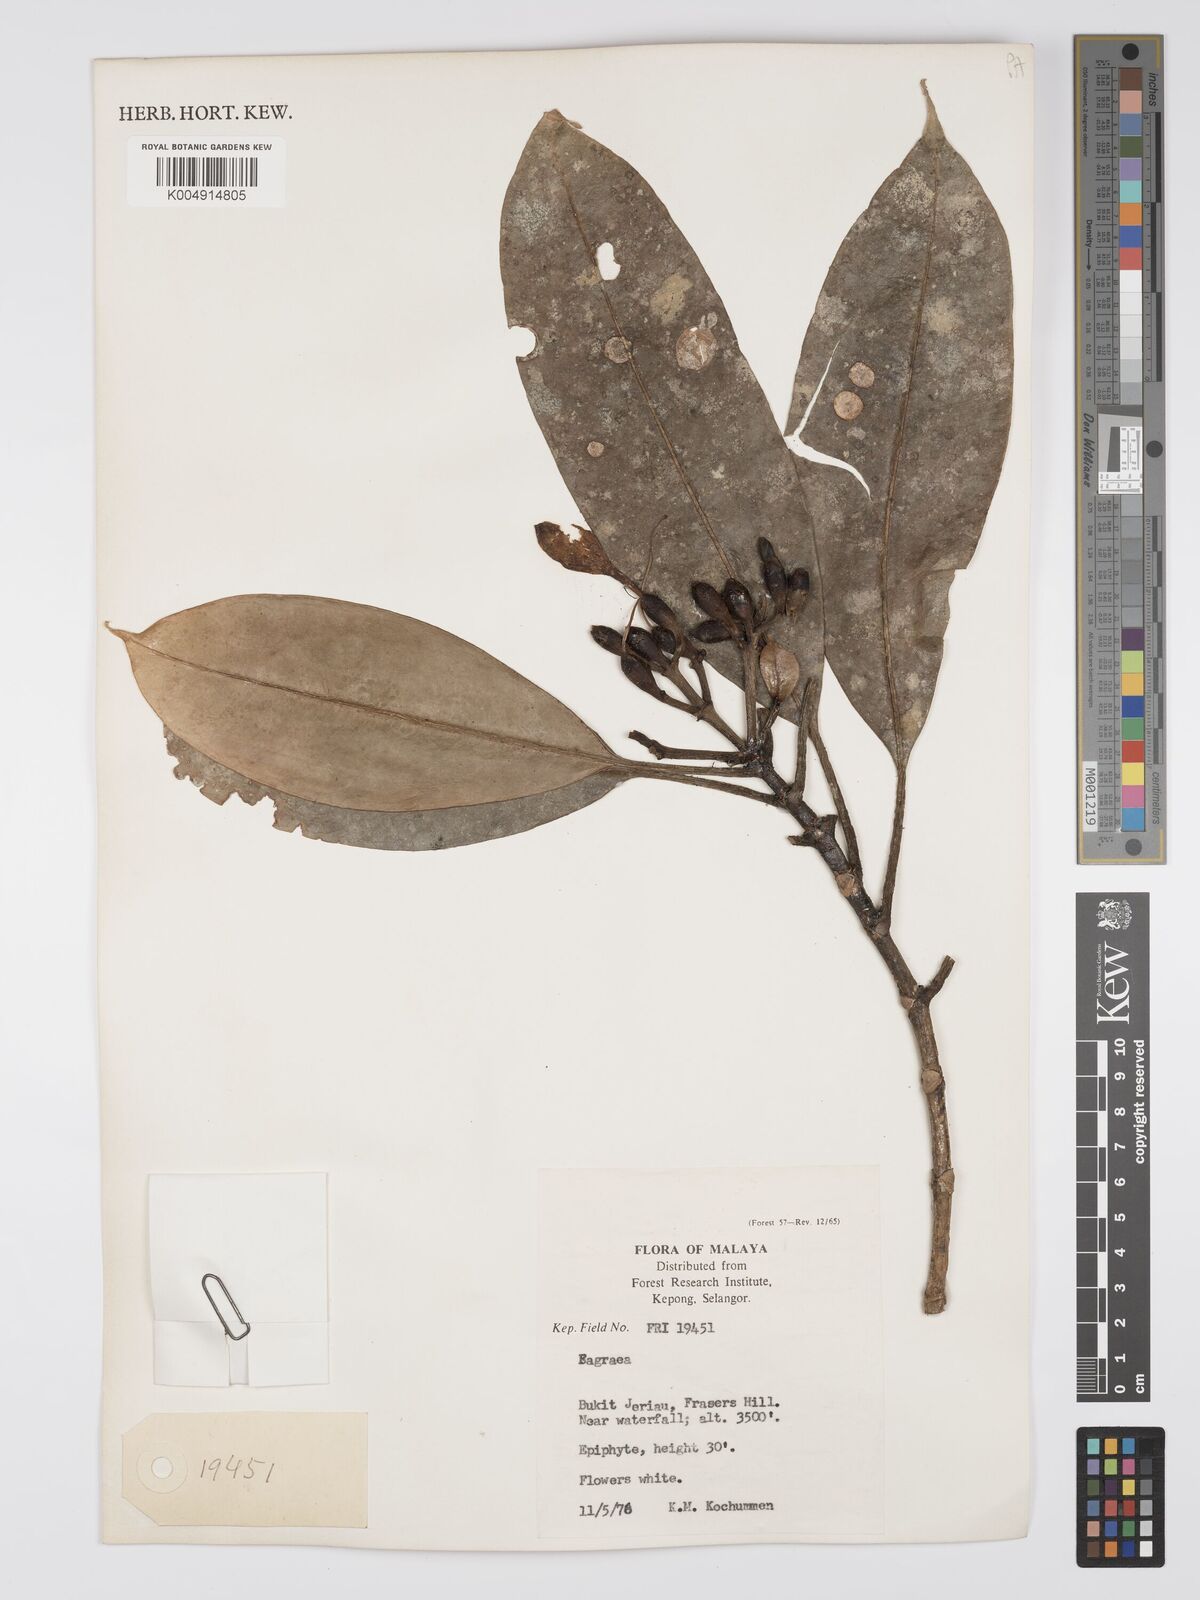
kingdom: Plantae
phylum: Tracheophyta
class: Magnoliopsida
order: Gentianales
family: Gentianaceae
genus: Fagraea
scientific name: Fagraea oblonga
